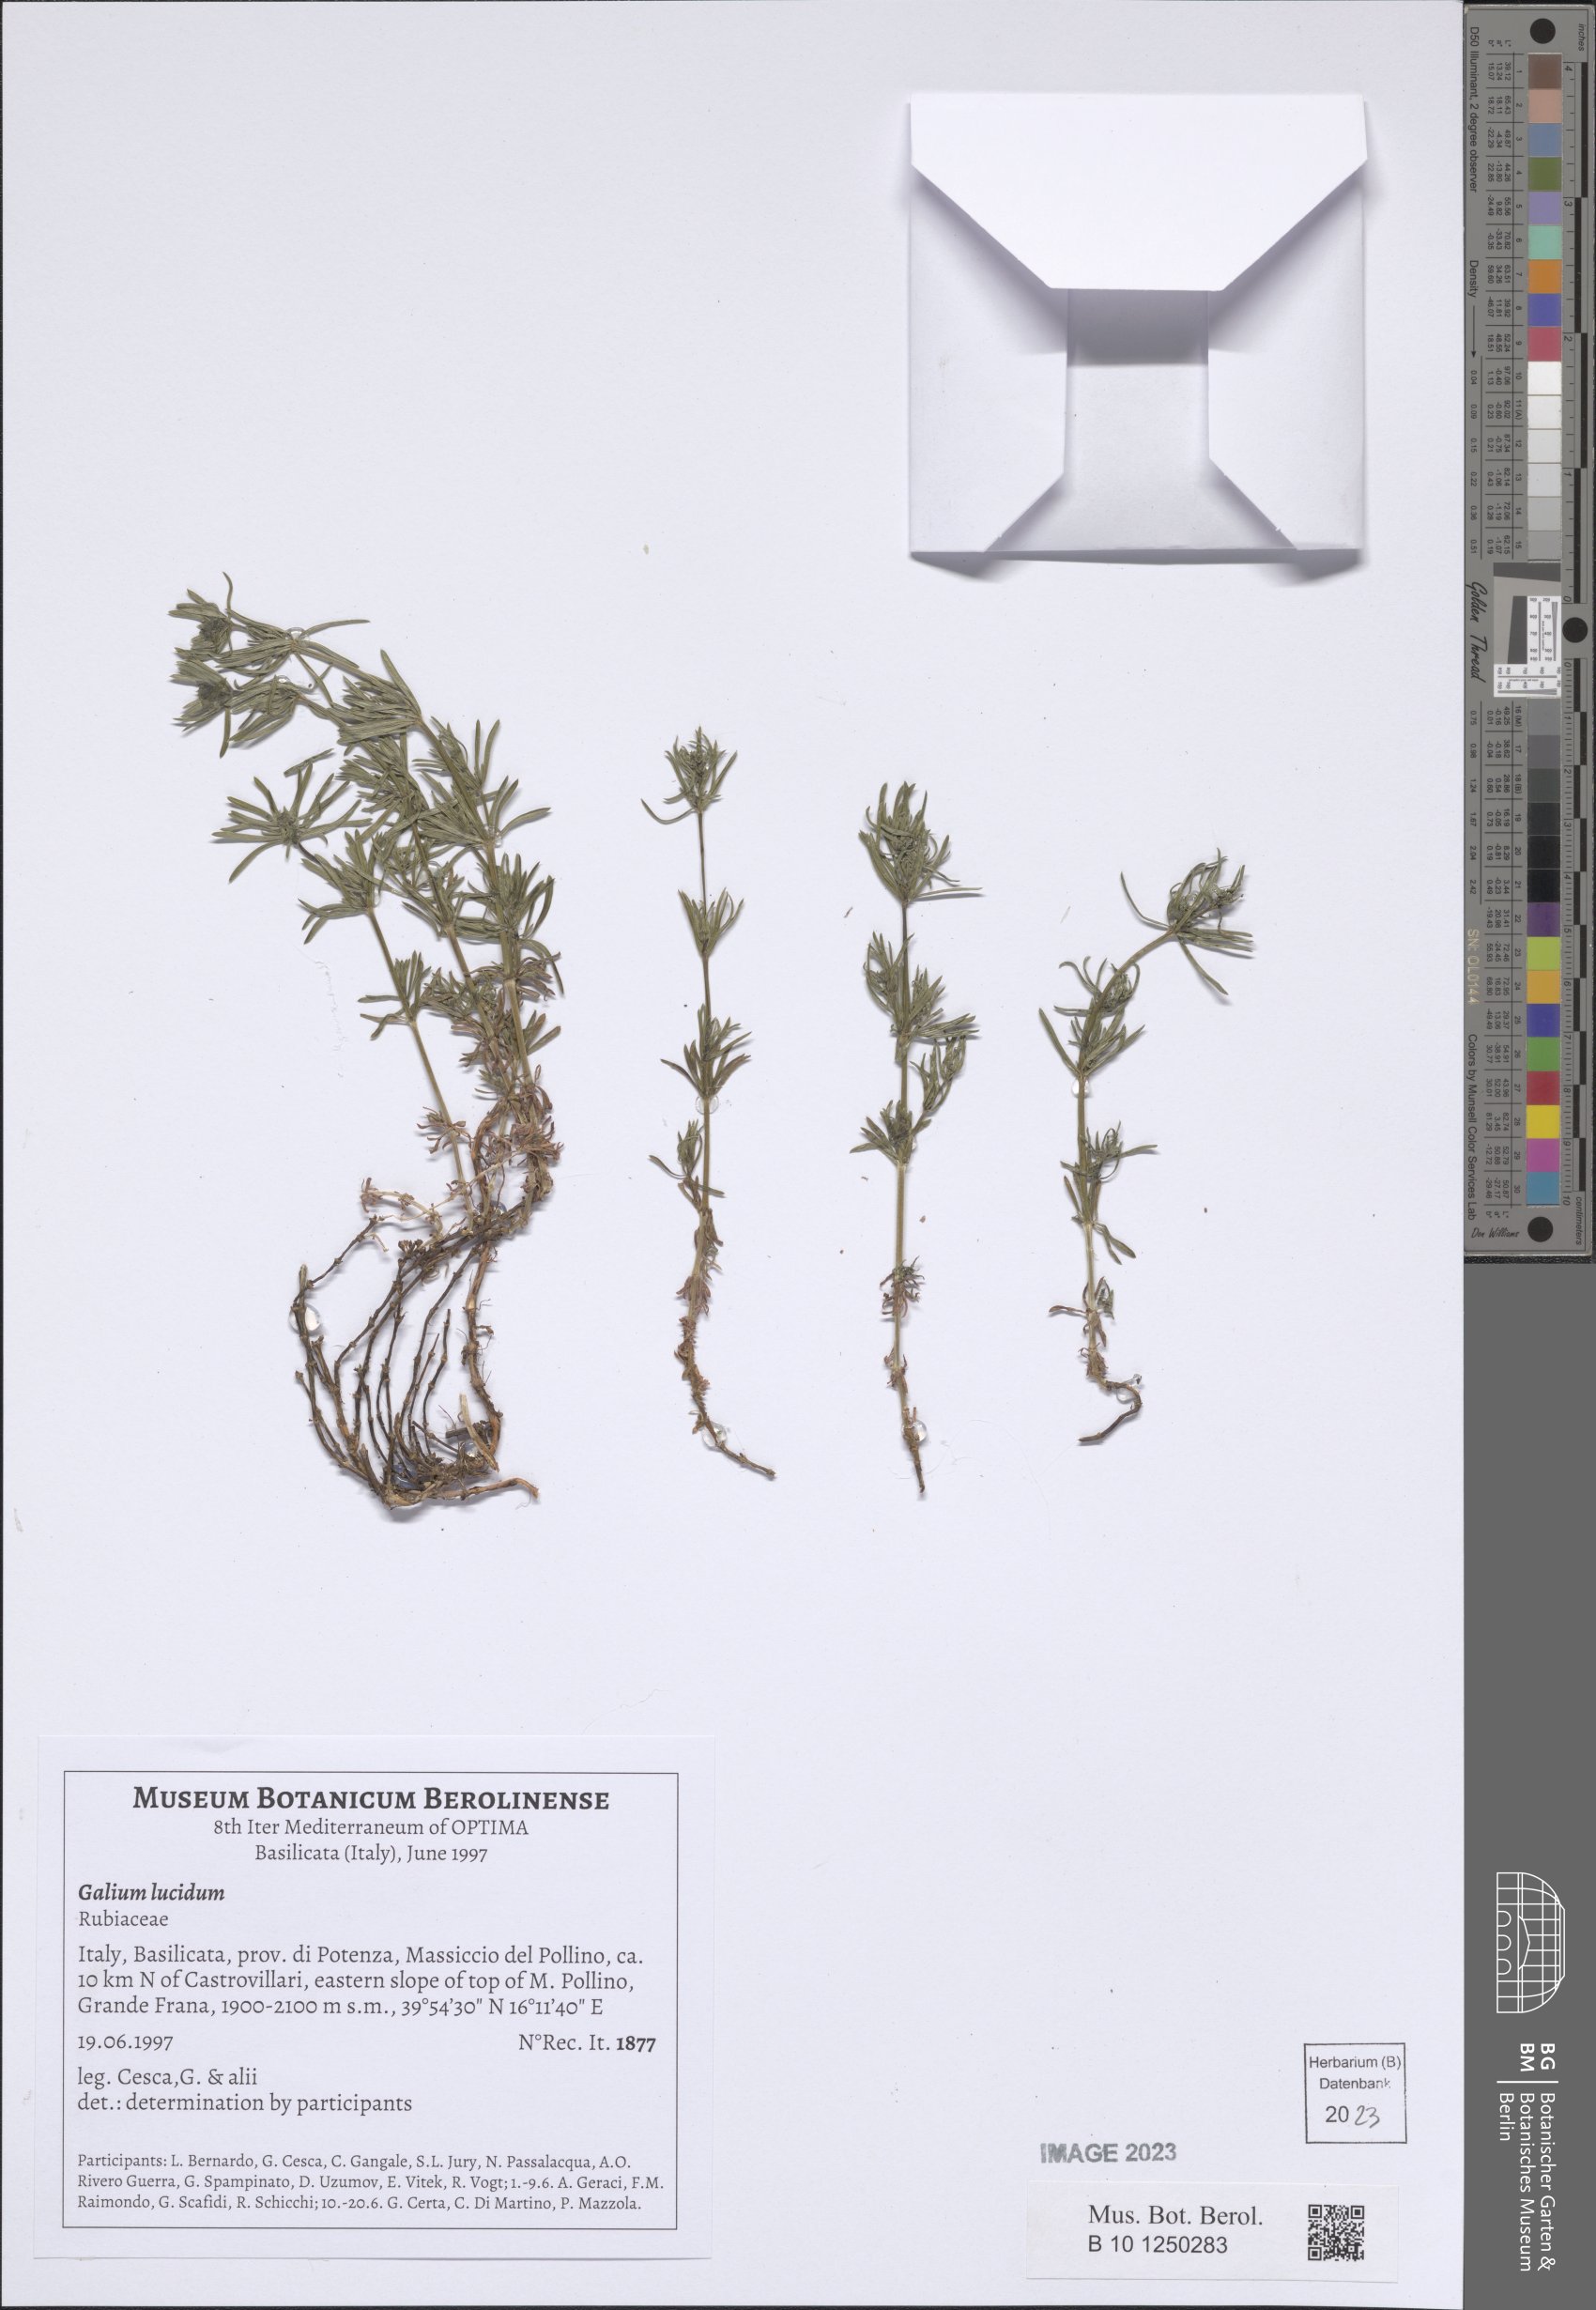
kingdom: Plantae
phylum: Tracheophyta
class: Magnoliopsida
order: Gentianales
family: Rubiaceae
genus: Galium
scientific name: Galium lucidum
